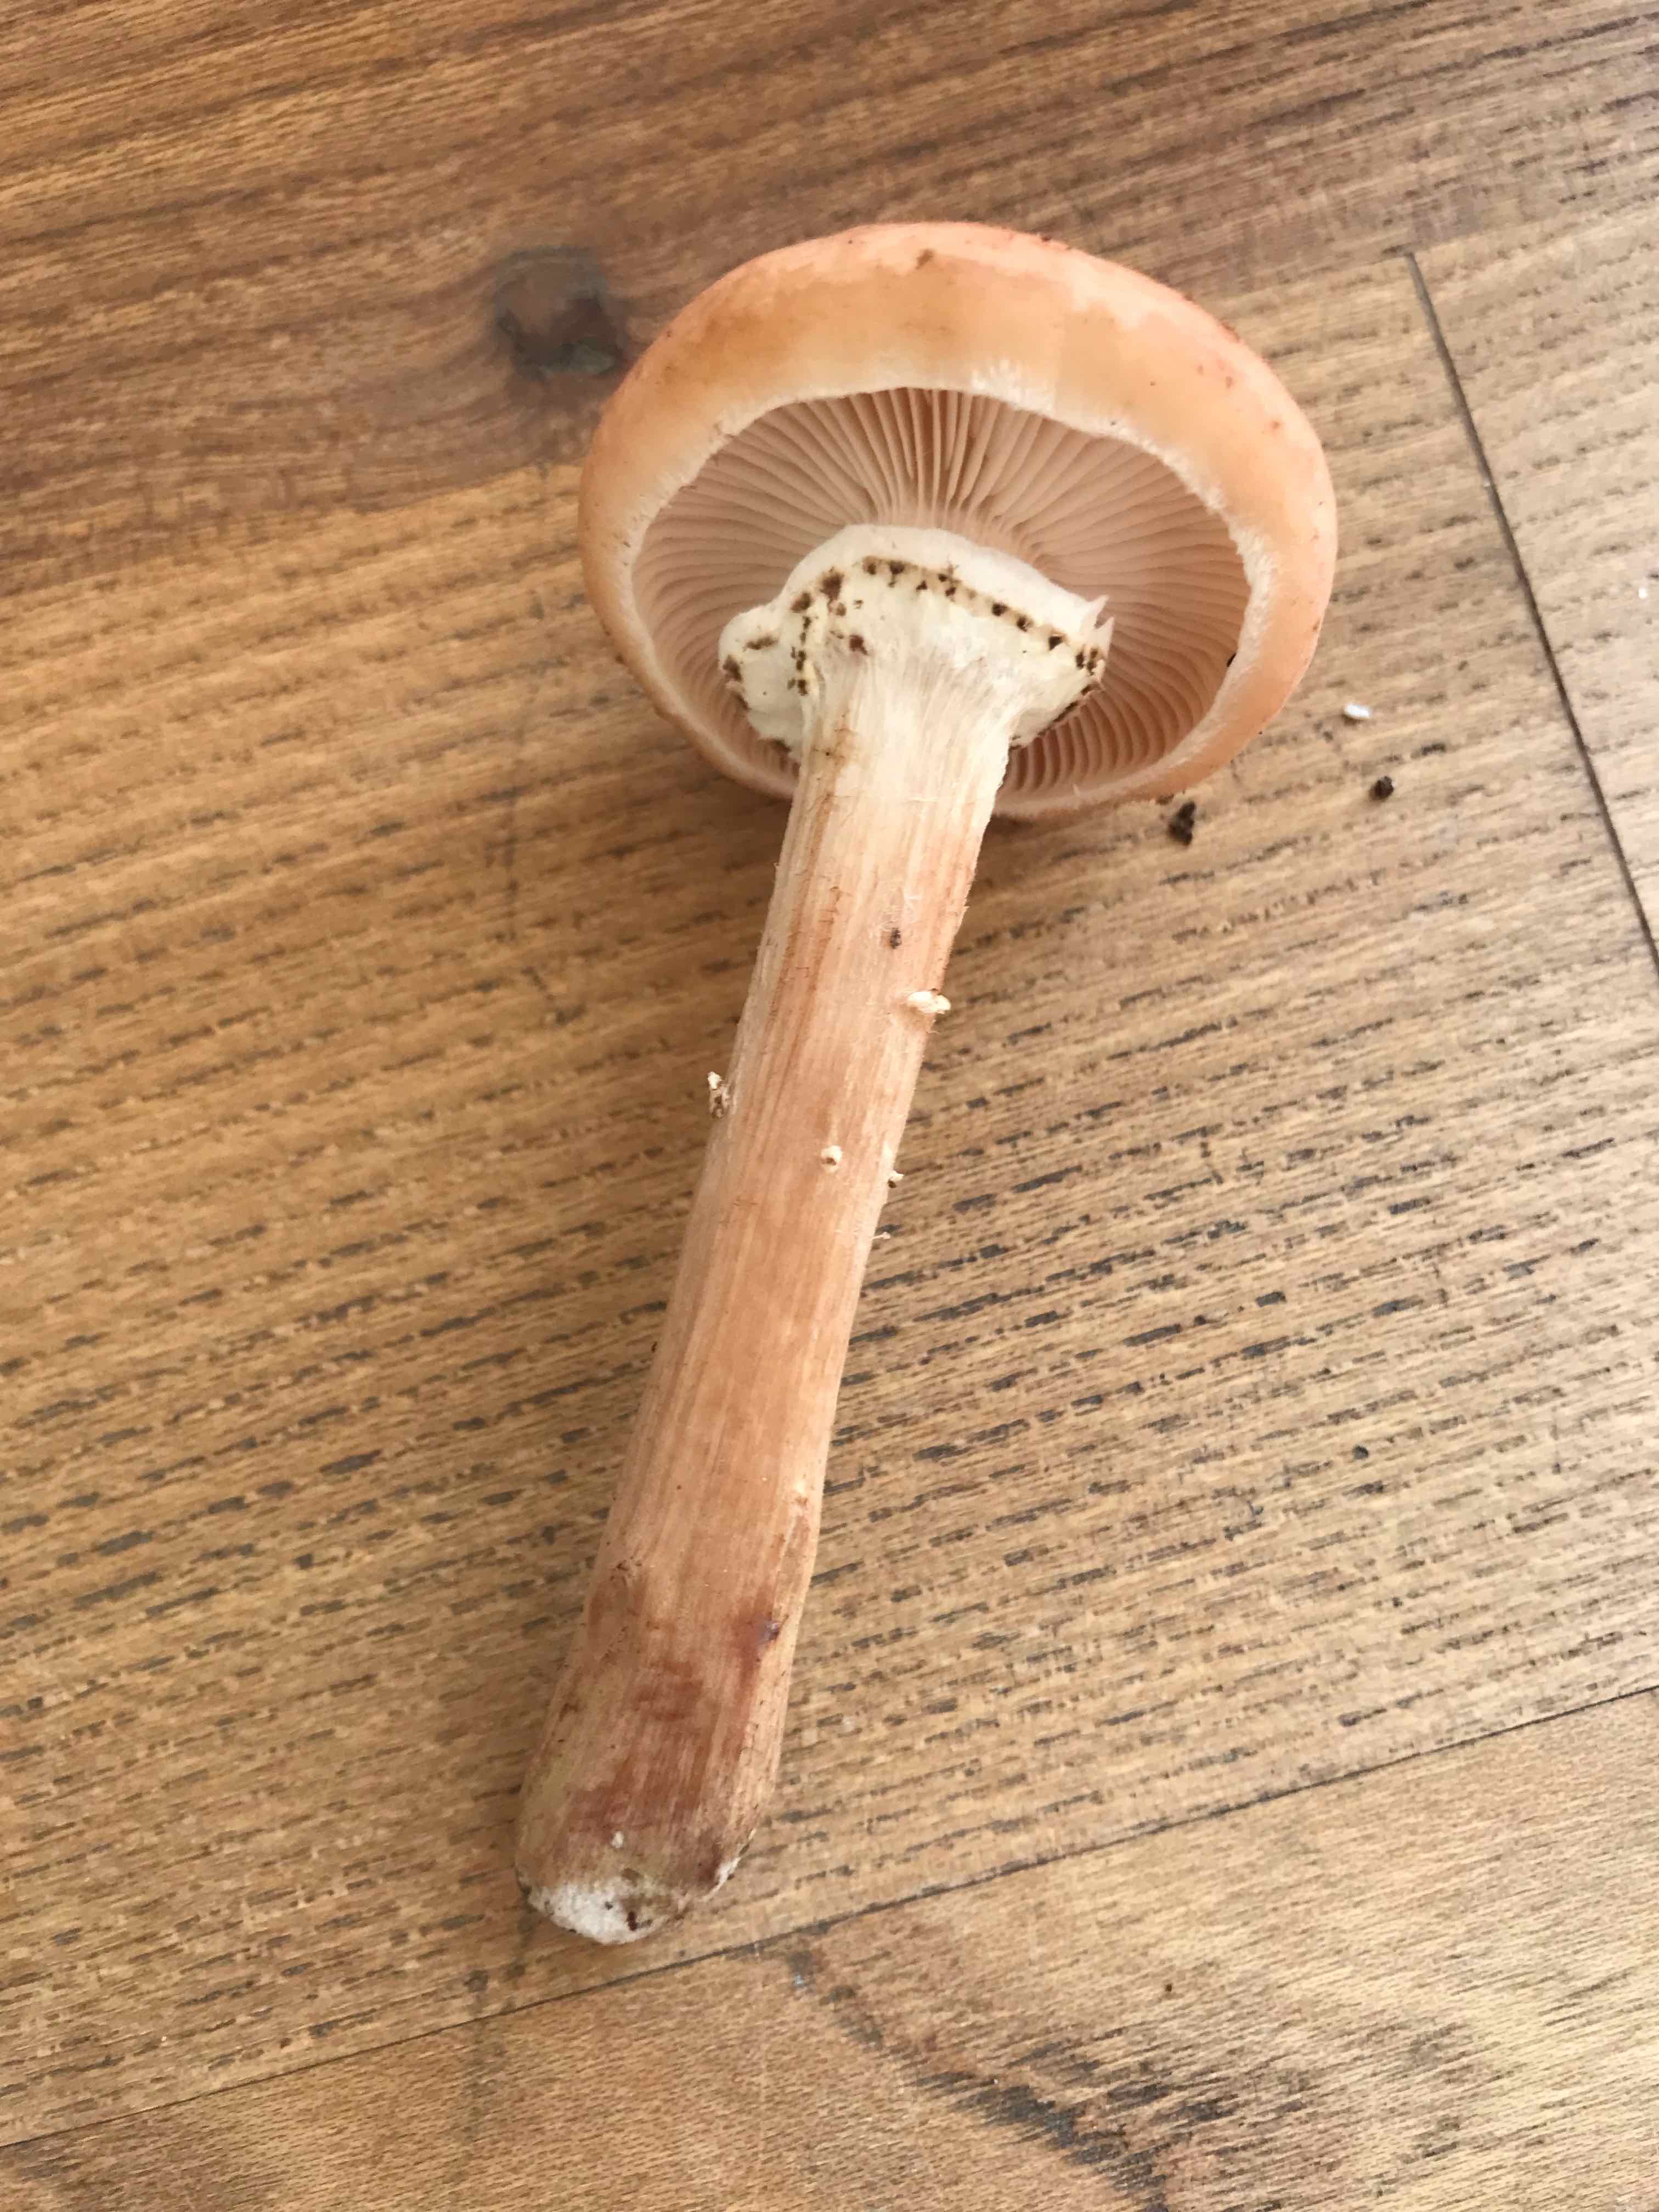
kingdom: Fungi
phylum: Basidiomycota
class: Agaricomycetes
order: Agaricales
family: Physalacriaceae
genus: Armillaria
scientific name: Armillaria ostoyae
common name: mørk honningsvamp
